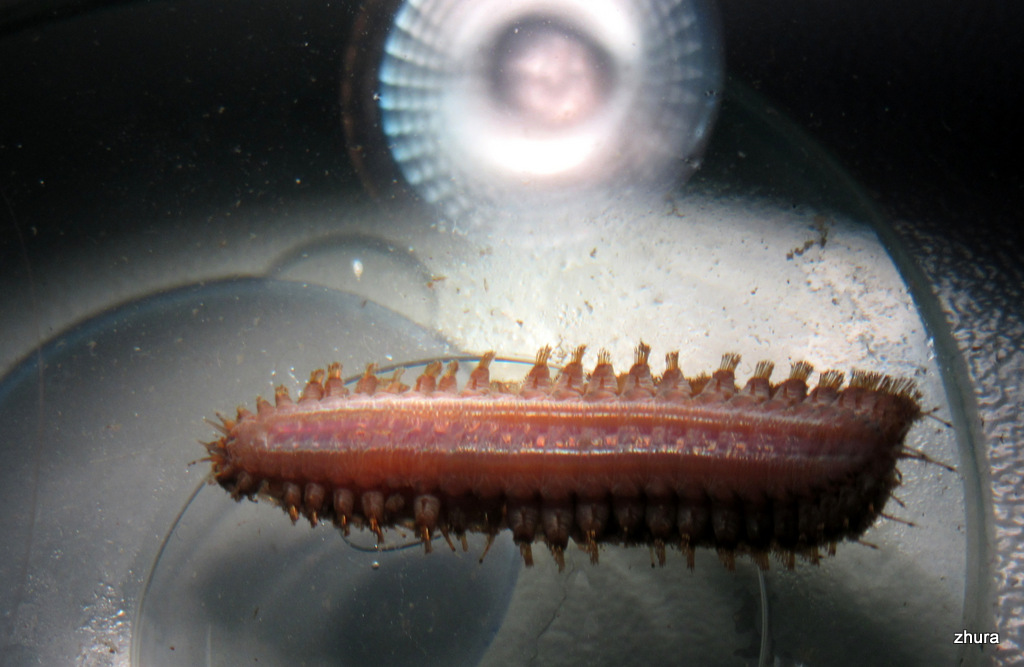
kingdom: Animalia
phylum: Annelida
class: Polychaeta
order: Phyllodocida
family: Polynoidae
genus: Lepidonotus
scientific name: Lepidonotus squamatus
